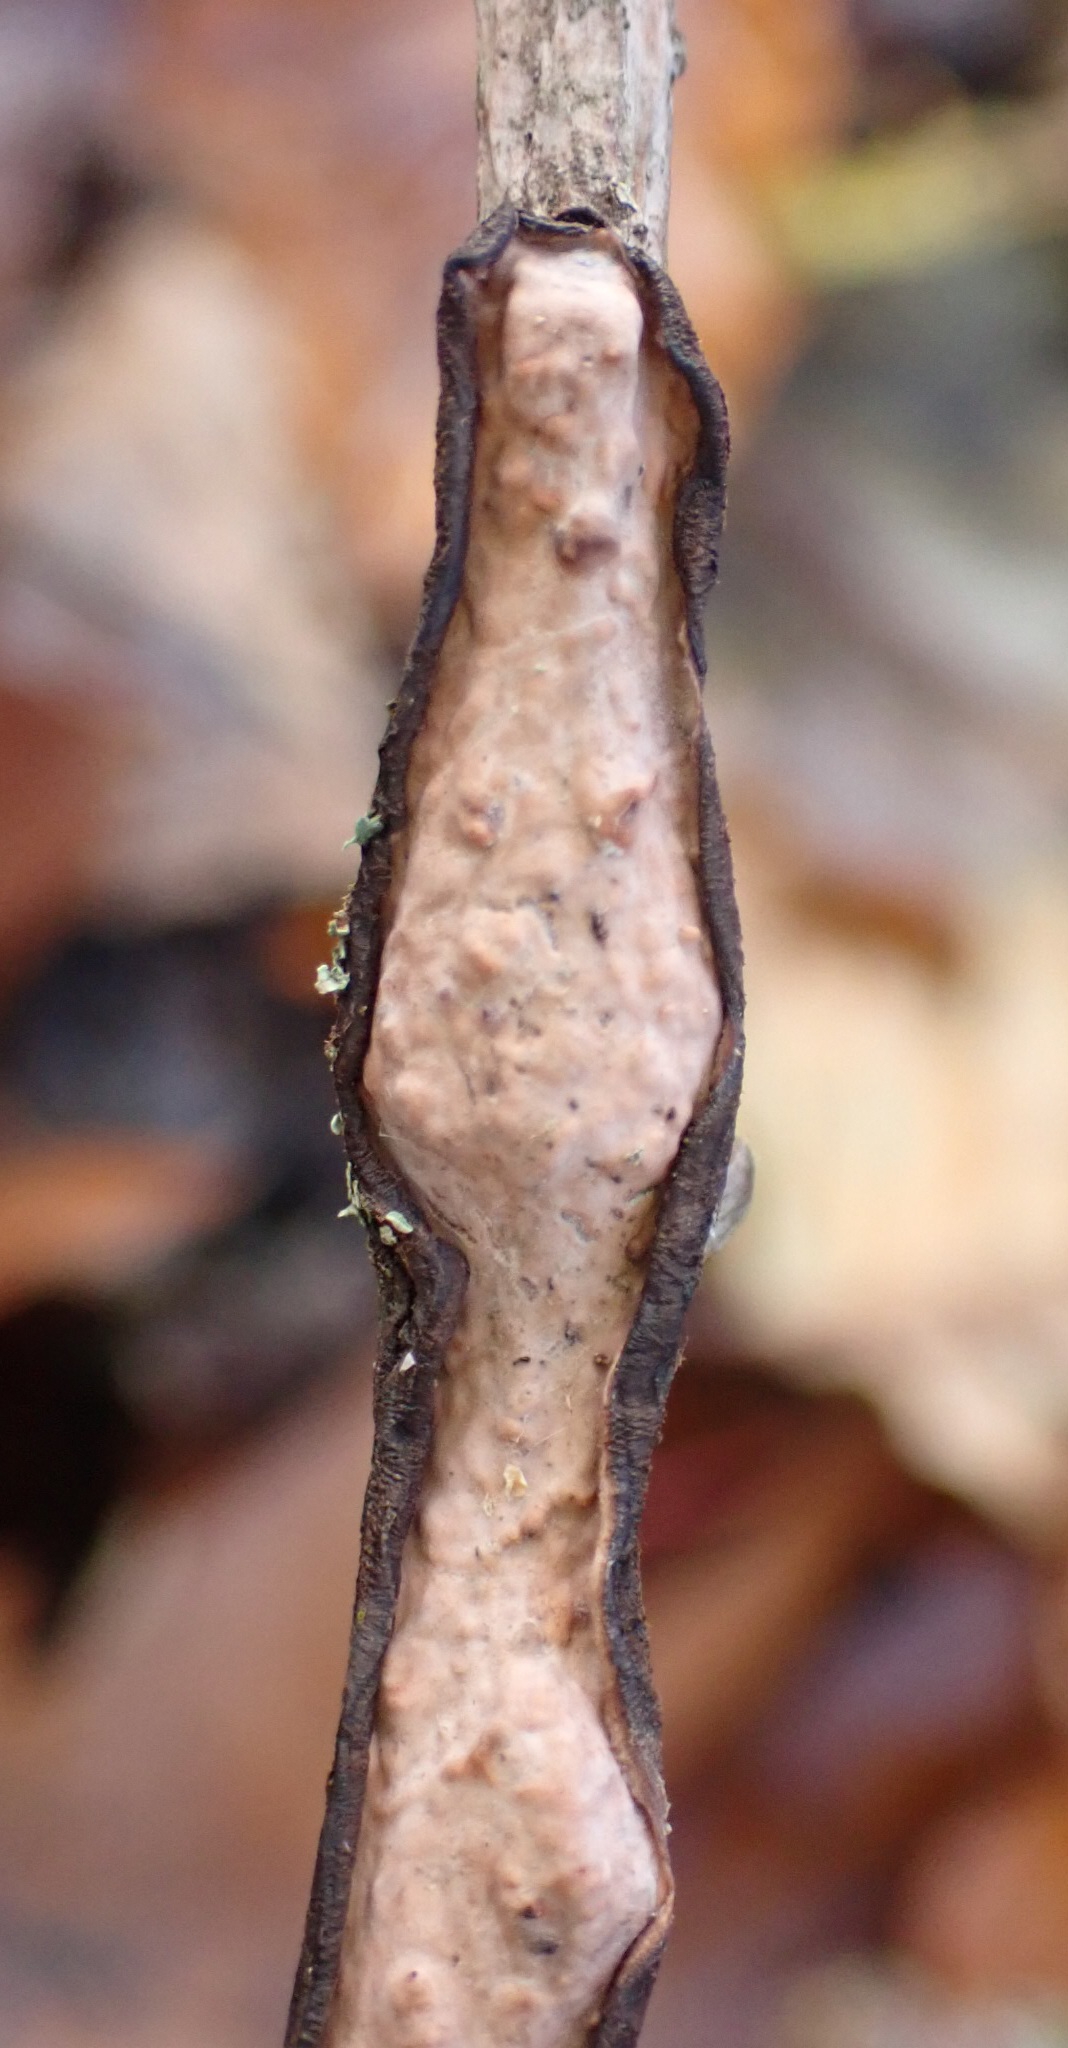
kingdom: Fungi
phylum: Basidiomycota
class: Agaricomycetes
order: Russulales
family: Peniophoraceae
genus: Peniophora
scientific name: Peniophora quercina
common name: ege-voksskind
